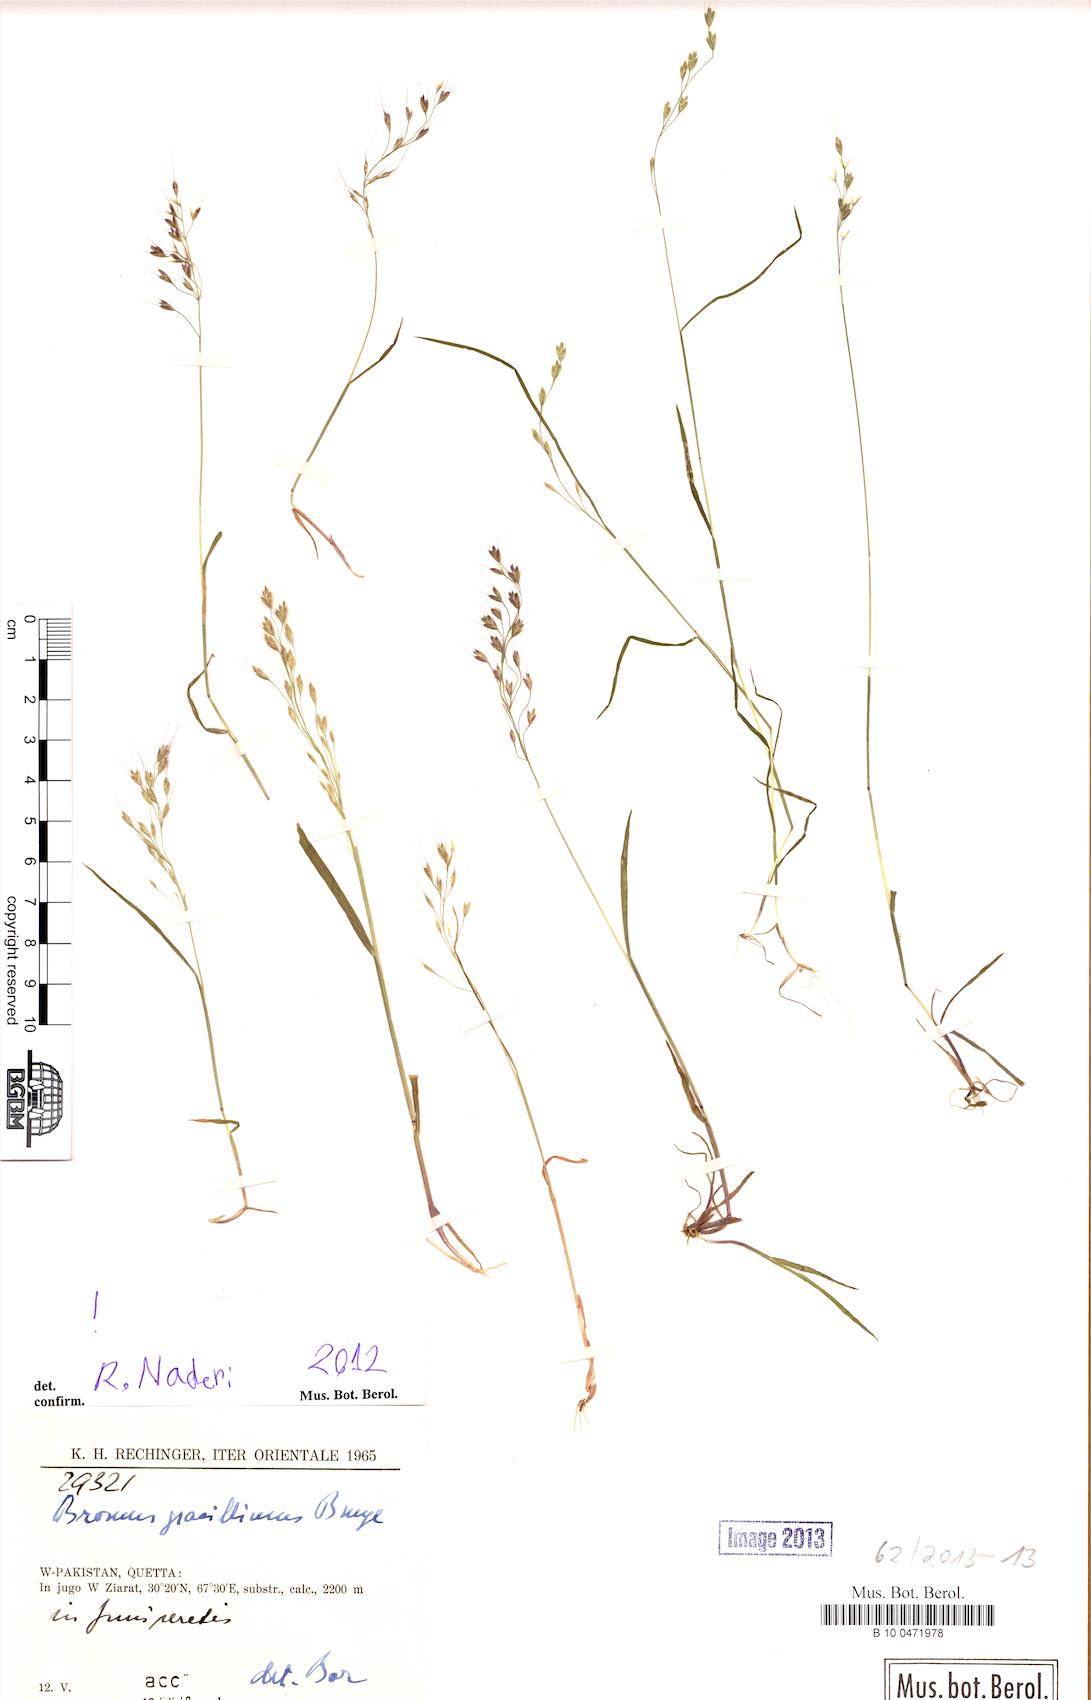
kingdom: Plantae
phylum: Tracheophyta
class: Liliopsida
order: Poales
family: Poaceae
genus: Bromus
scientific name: Bromus gracillimus
